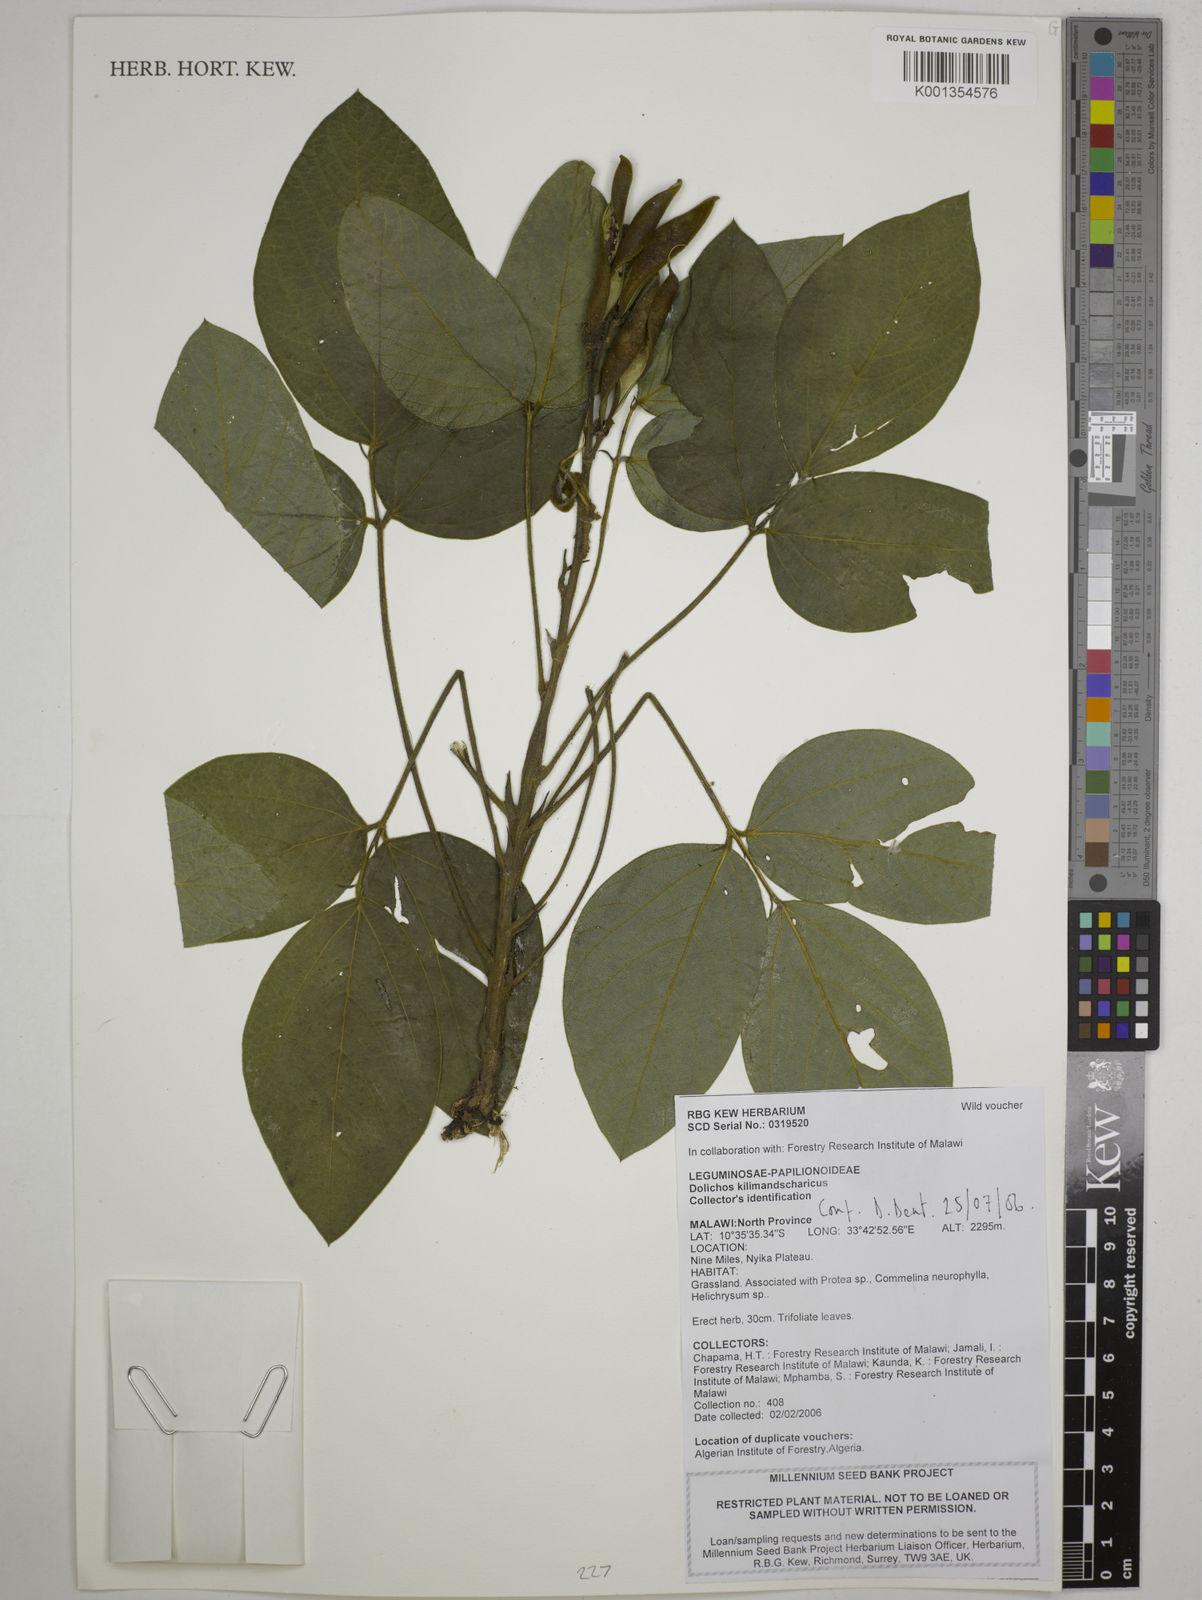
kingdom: Plantae
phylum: Tracheophyta
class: Magnoliopsida
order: Fabales
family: Fabaceae
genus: Dolichos
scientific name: Dolichos kilimandscharicus
